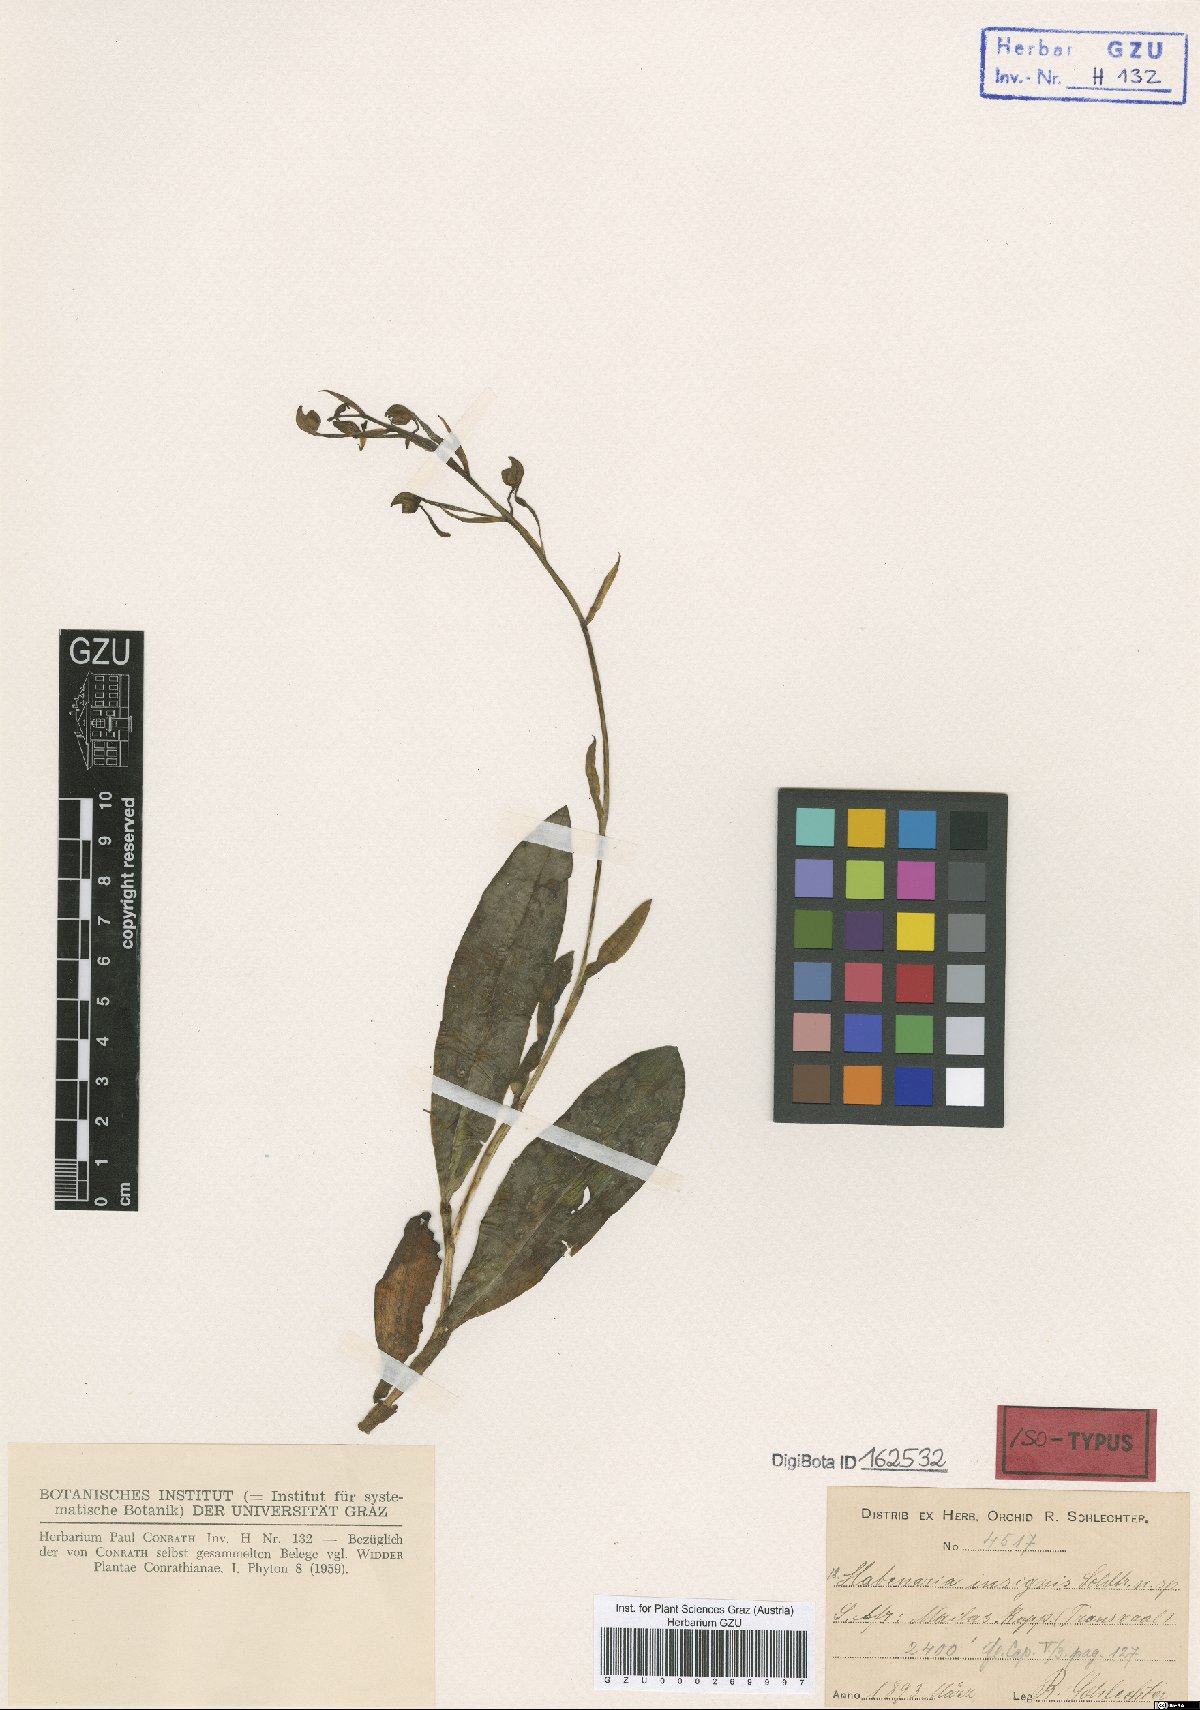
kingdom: Plantae
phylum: Tracheophyta
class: Liliopsida
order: Asparagales
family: Orchidaceae
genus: Bonatea
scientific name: Bonatea polypodantha
